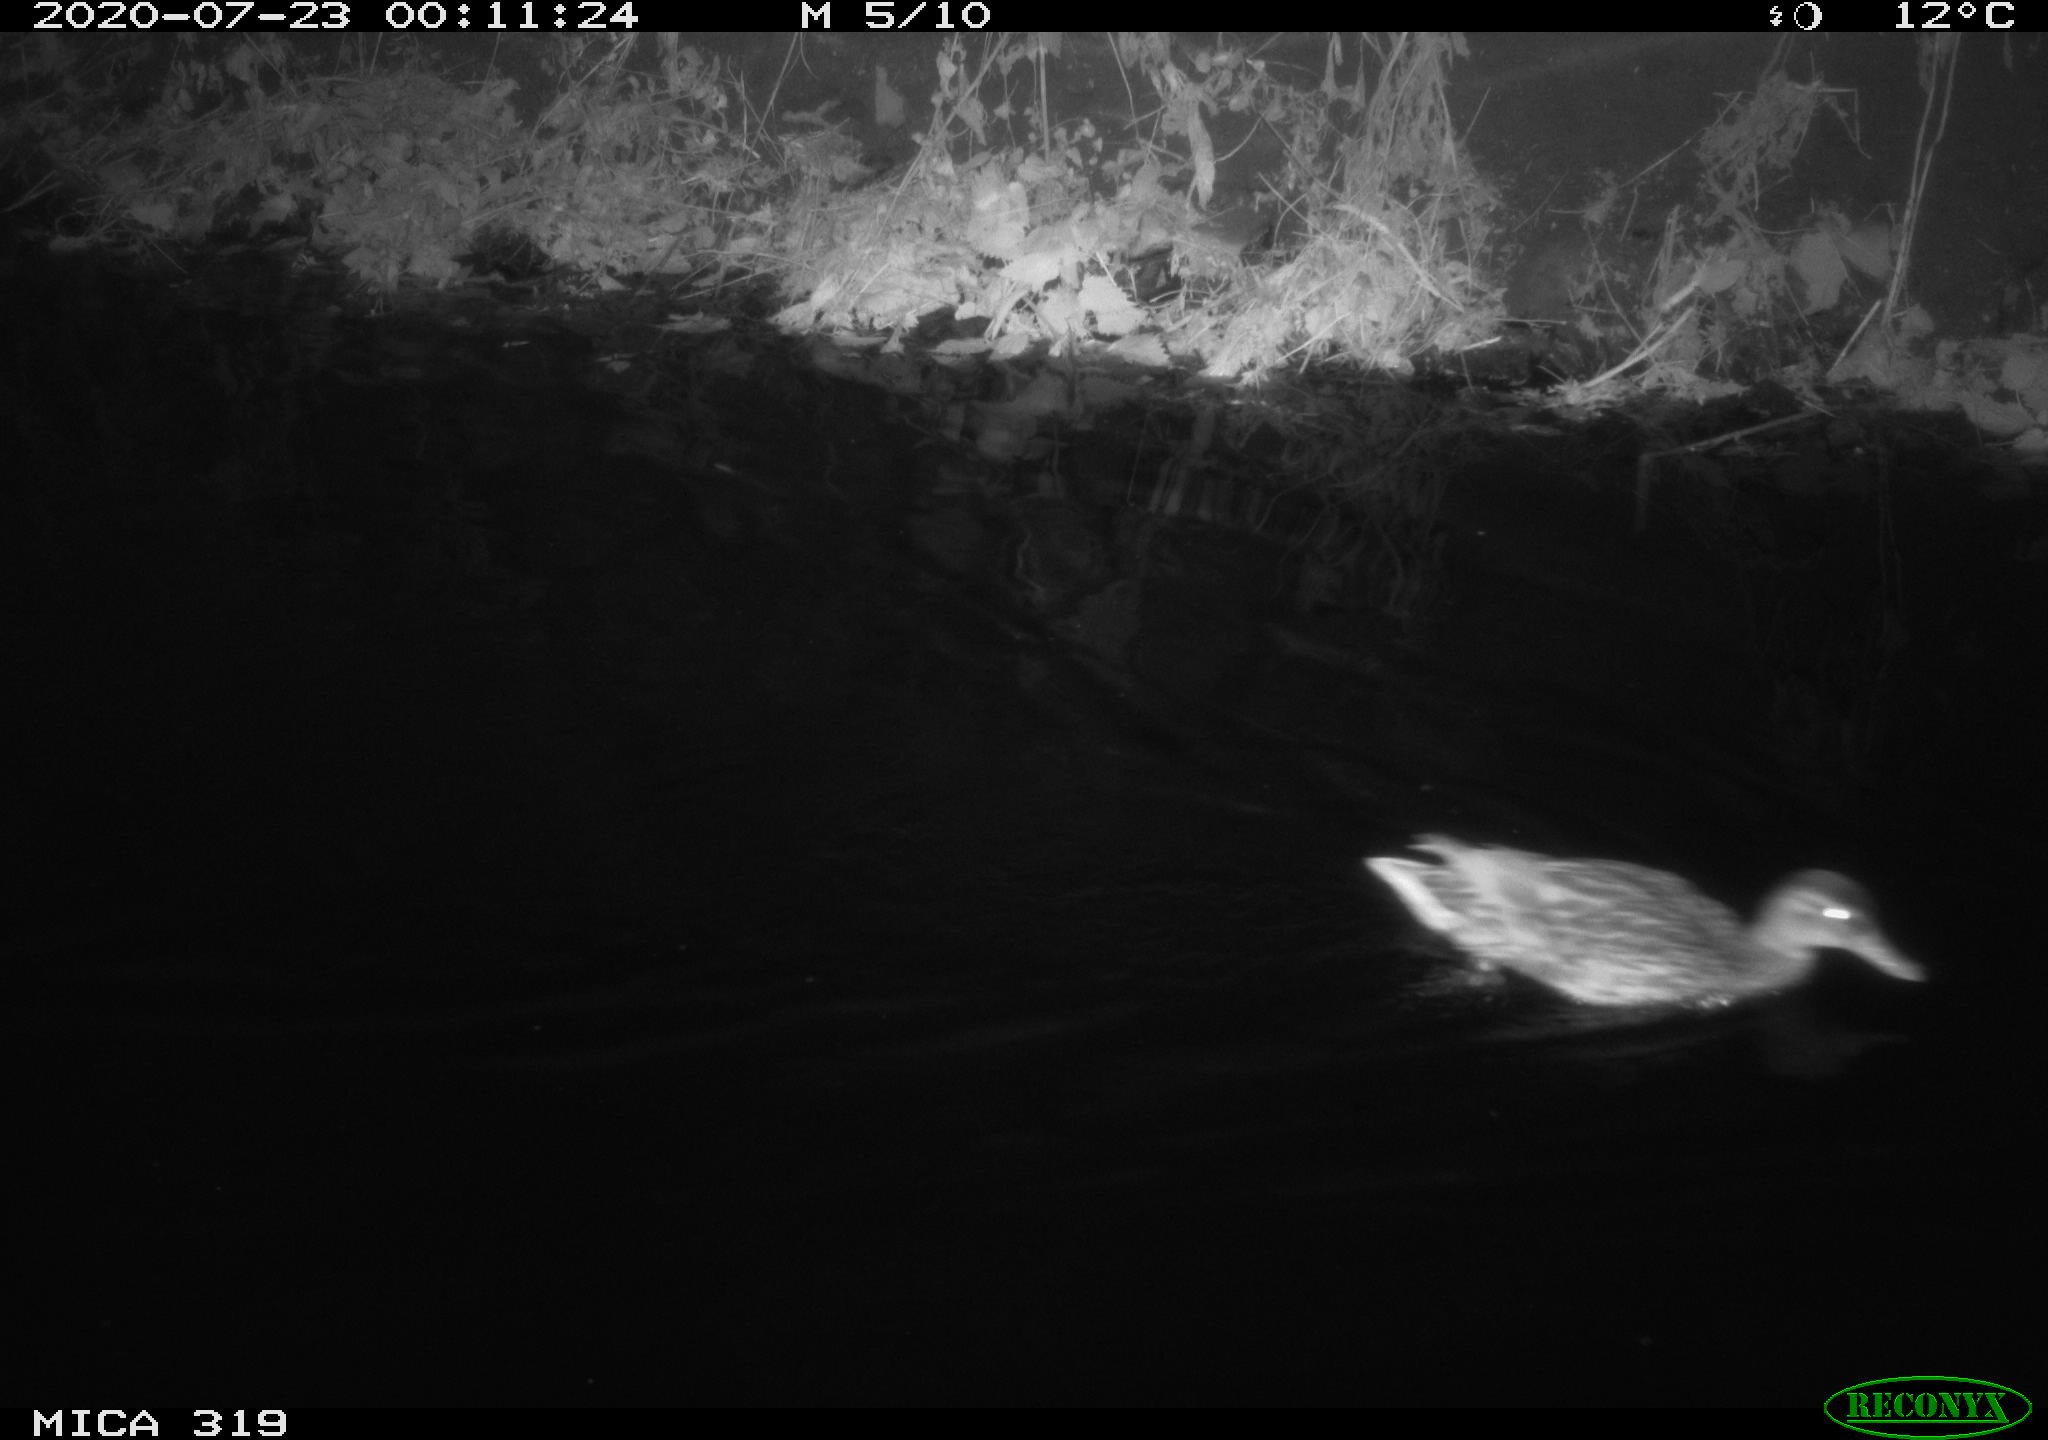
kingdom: Animalia
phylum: Chordata
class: Aves
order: Anseriformes
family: Anatidae
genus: Anas
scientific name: Anas platyrhynchos
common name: Mallard
